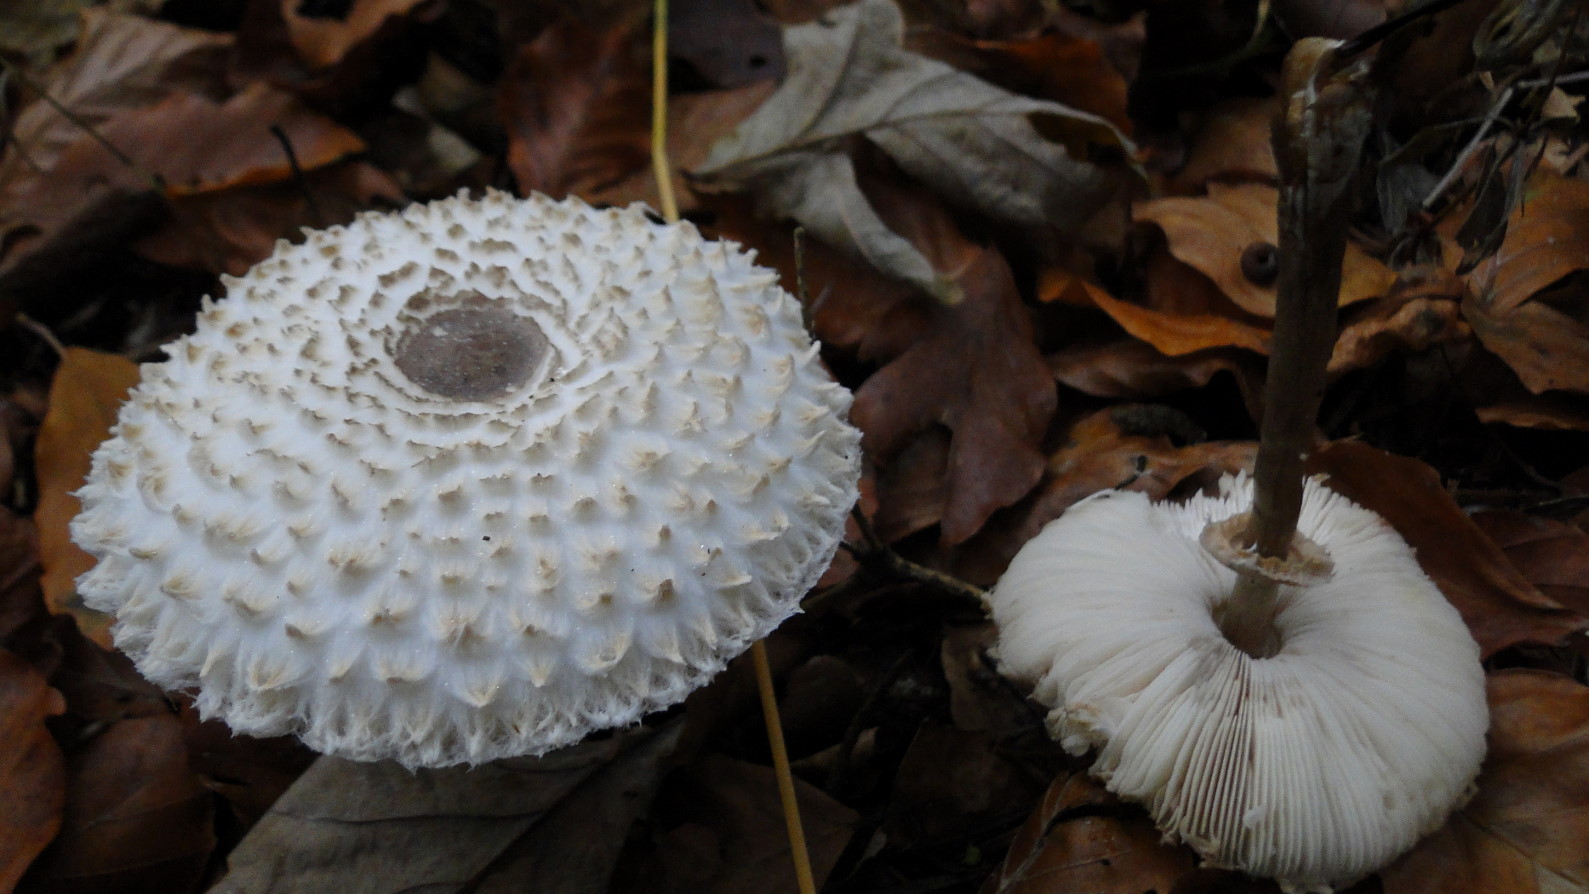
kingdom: Fungi
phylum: Basidiomycota
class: Agaricomycetes
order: Agaricales
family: Agaricaceae
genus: Leucoagaricus
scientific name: Leucoagaricus nympharum
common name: gran-silkehat
